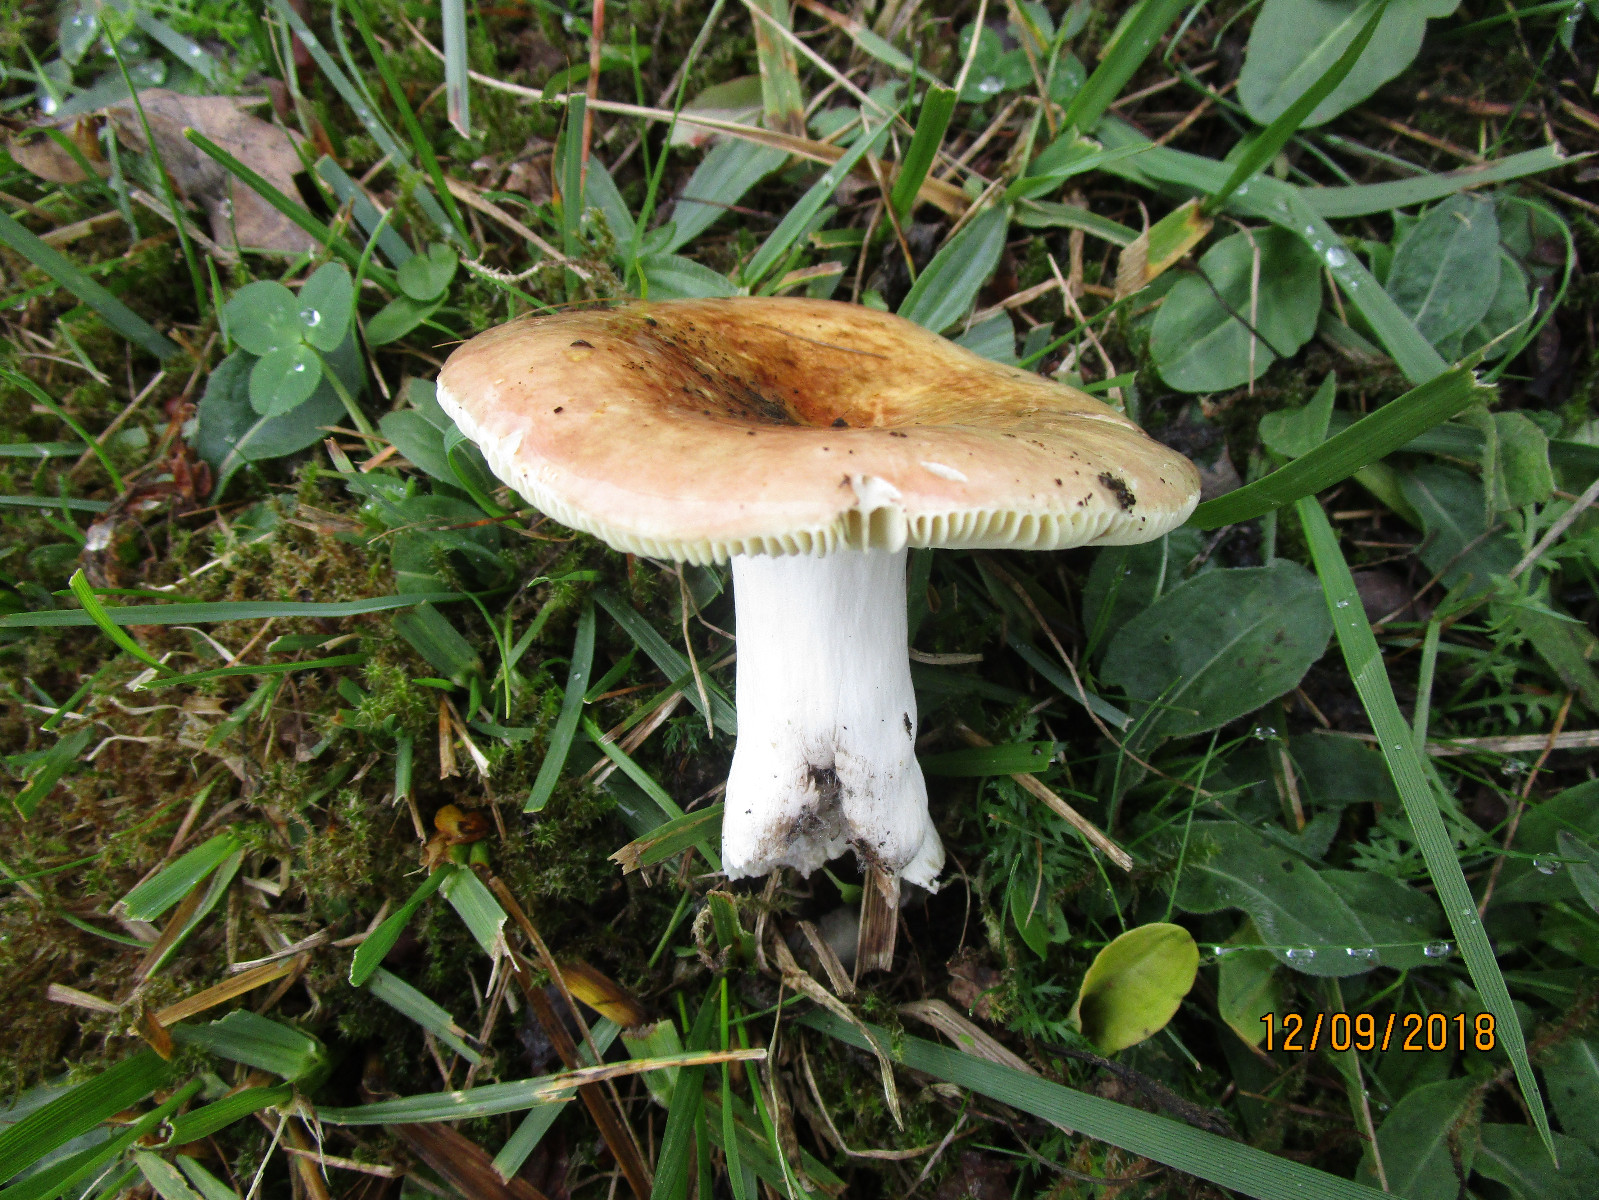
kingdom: Fungi
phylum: Basidiomycota
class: Agaricomycetes
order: Russulales
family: Russulaceae
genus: Russula
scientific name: Russula vesca
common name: spiselig skørhat
